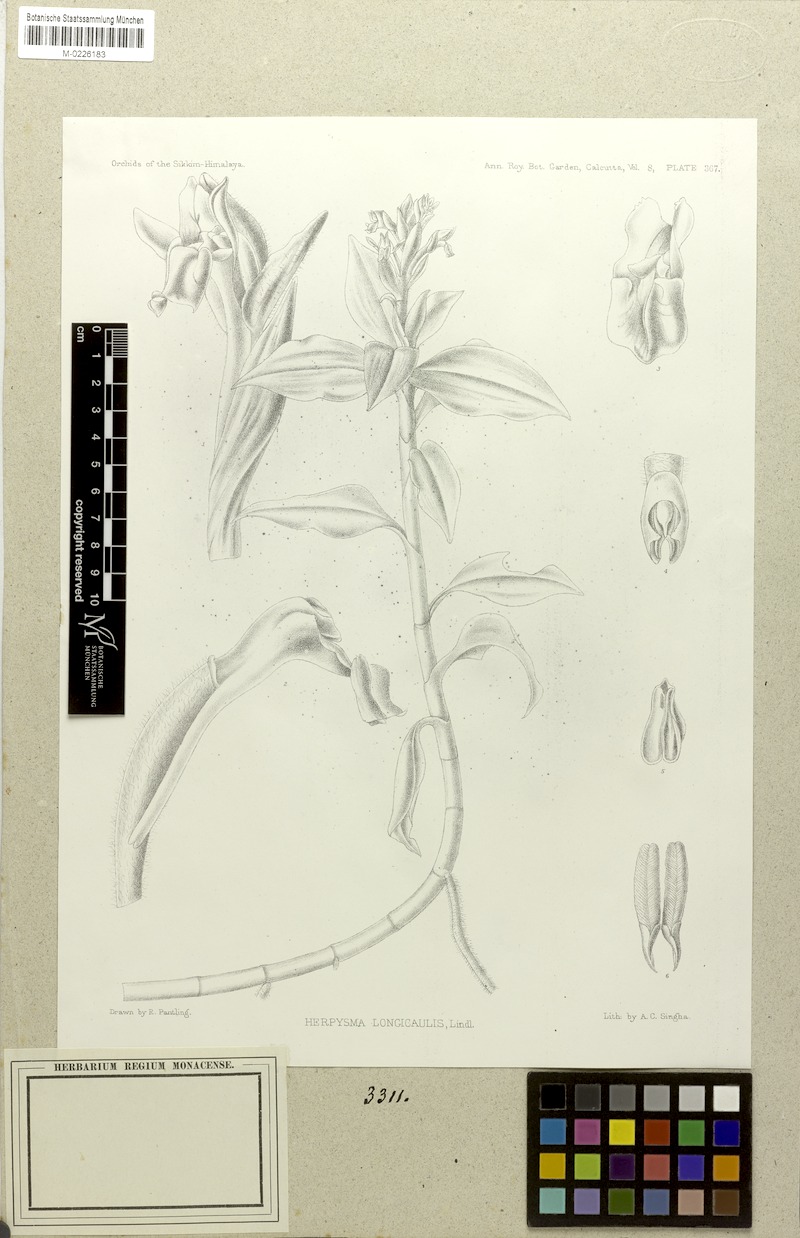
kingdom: Plantae
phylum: Tracheophyta
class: Liliopsida
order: Asparagales
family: Orchidaceae
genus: Herpysma
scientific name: Herpysma longicaulis
